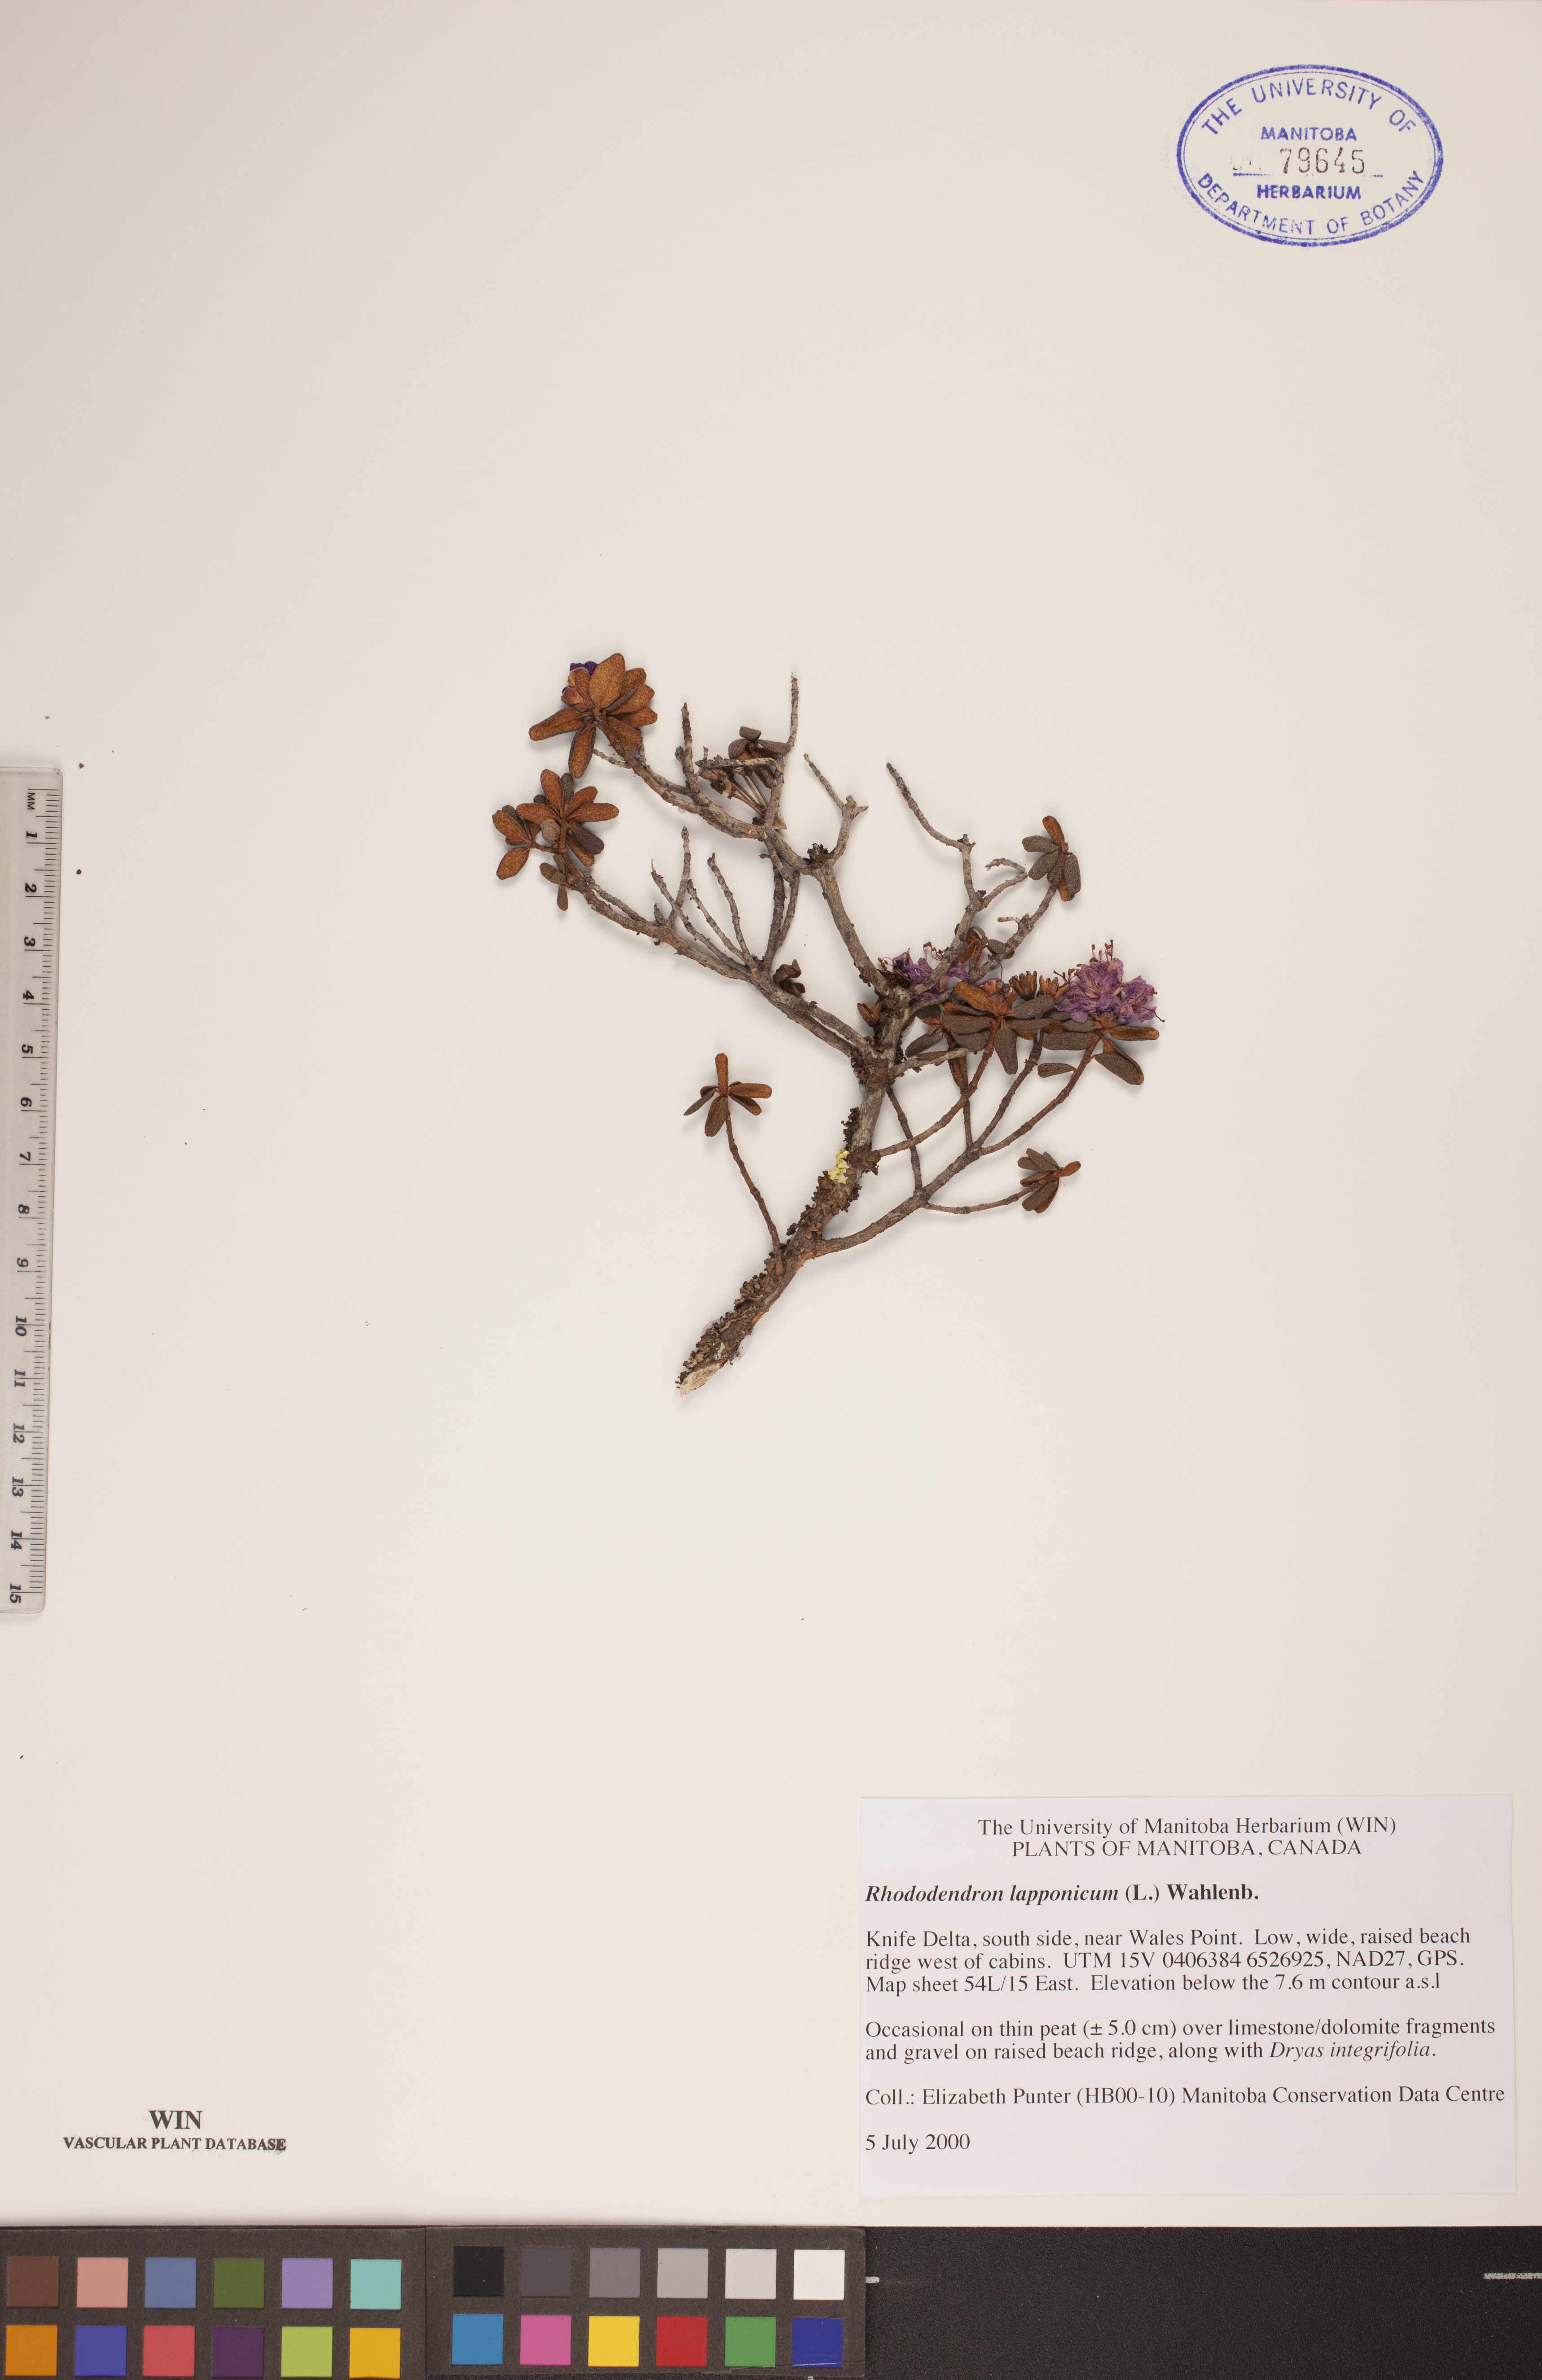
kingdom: Plantae
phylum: Tracheophyta
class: Magnoliopsida
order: Ericales
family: Ericaceae
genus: Rhododendron
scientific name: Rhododendron lapponicum
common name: Lapland rhododendron
